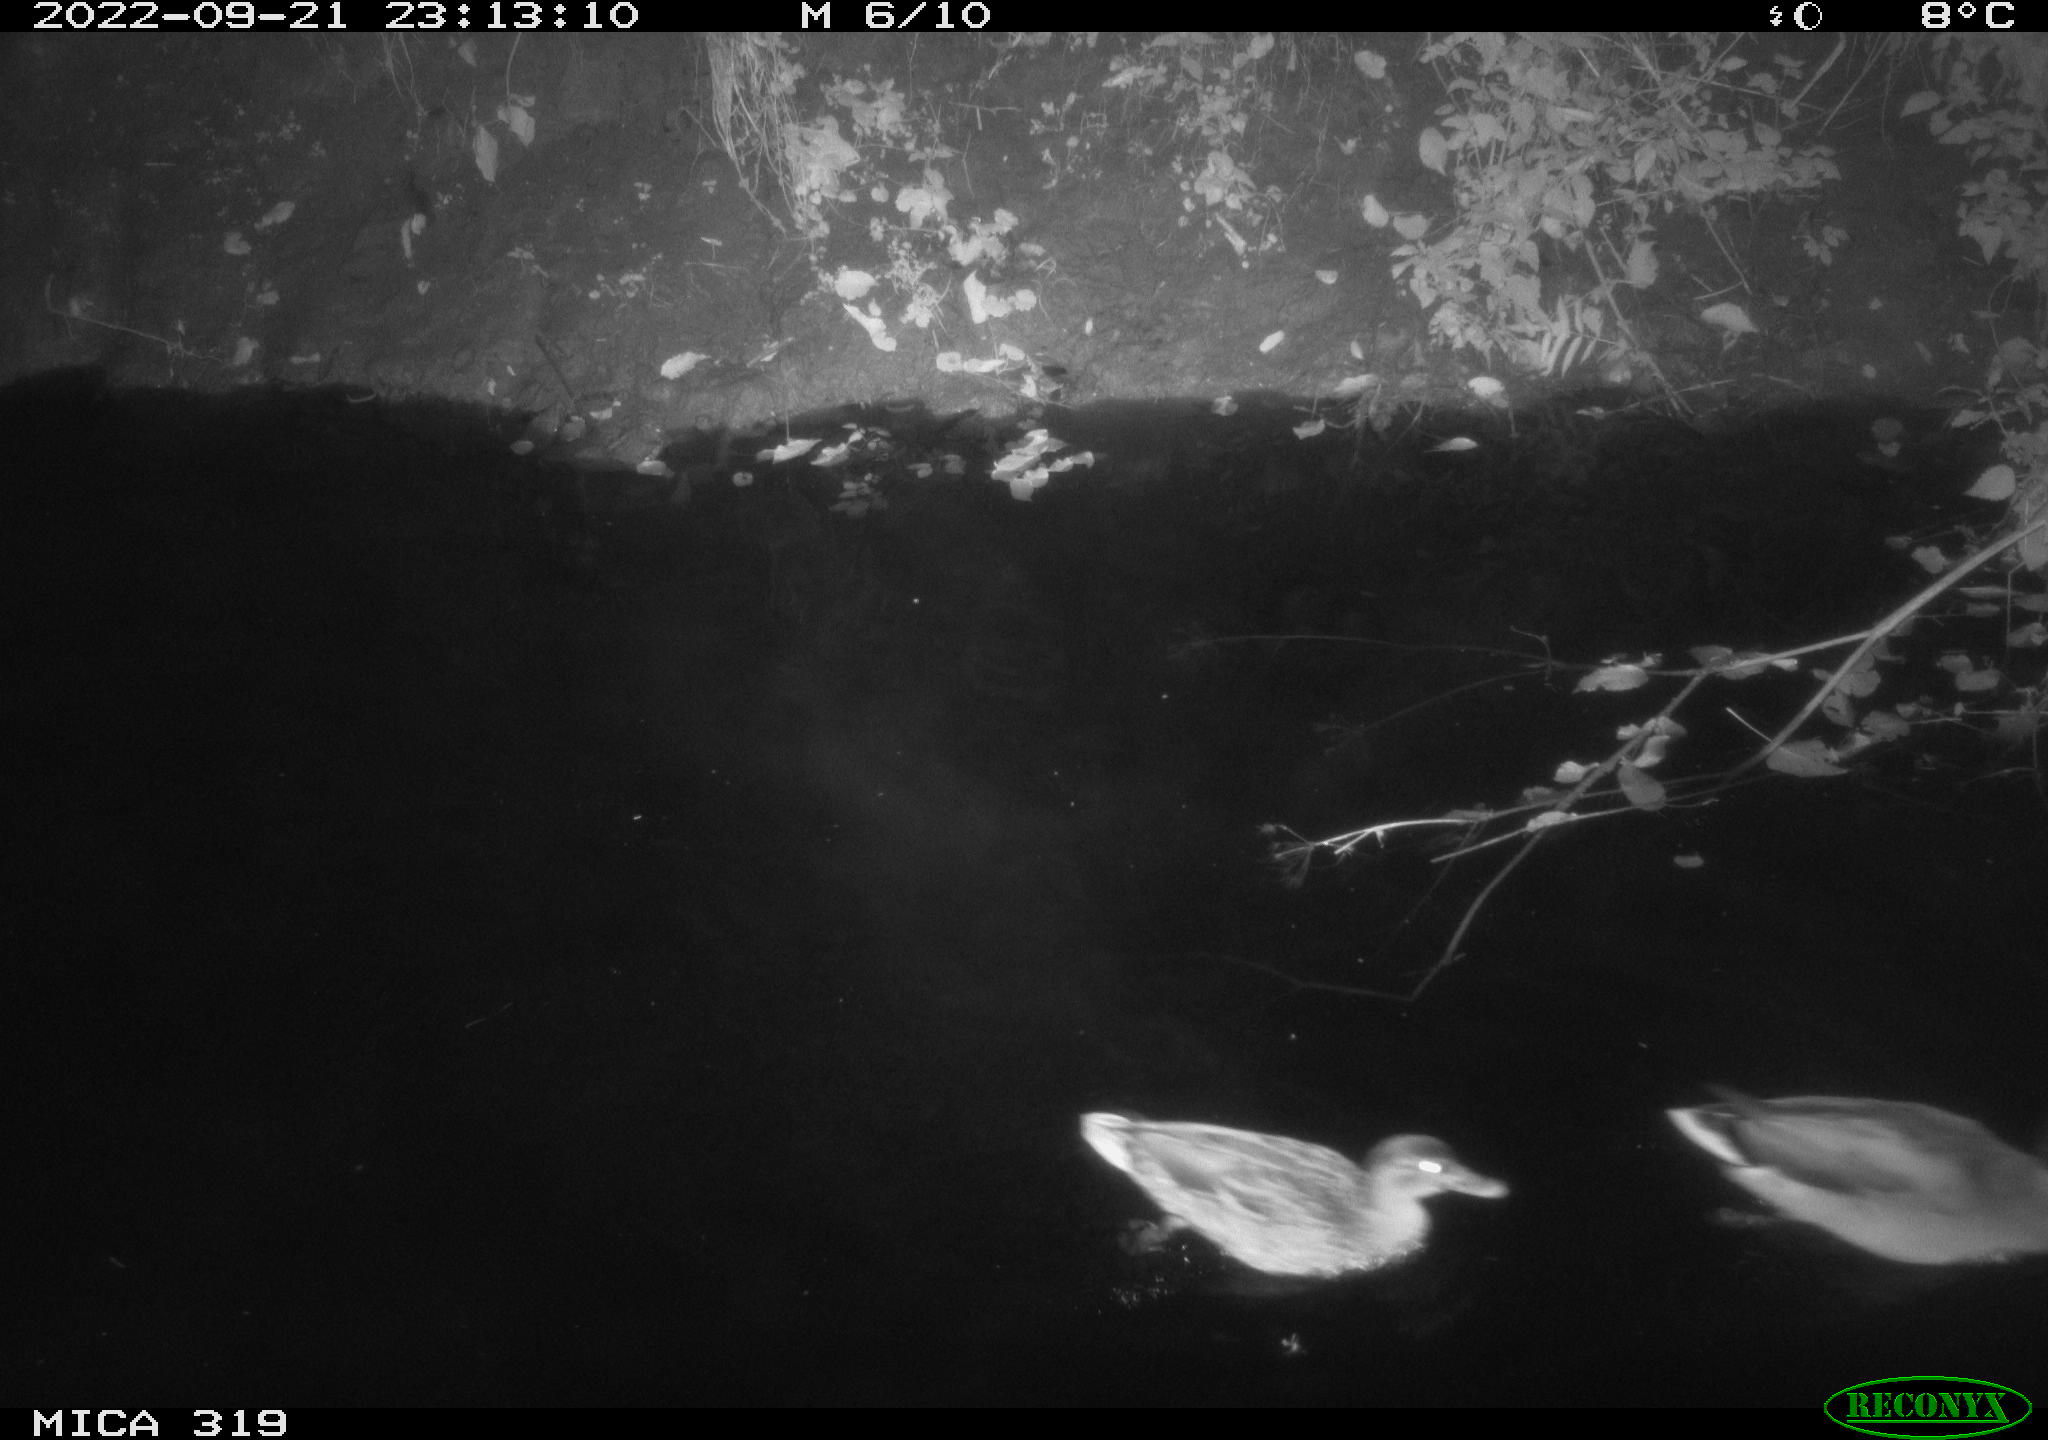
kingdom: Animalia
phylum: Chordata
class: Aves
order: Anseriformes
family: Anatidae
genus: Anas
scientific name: Anas
